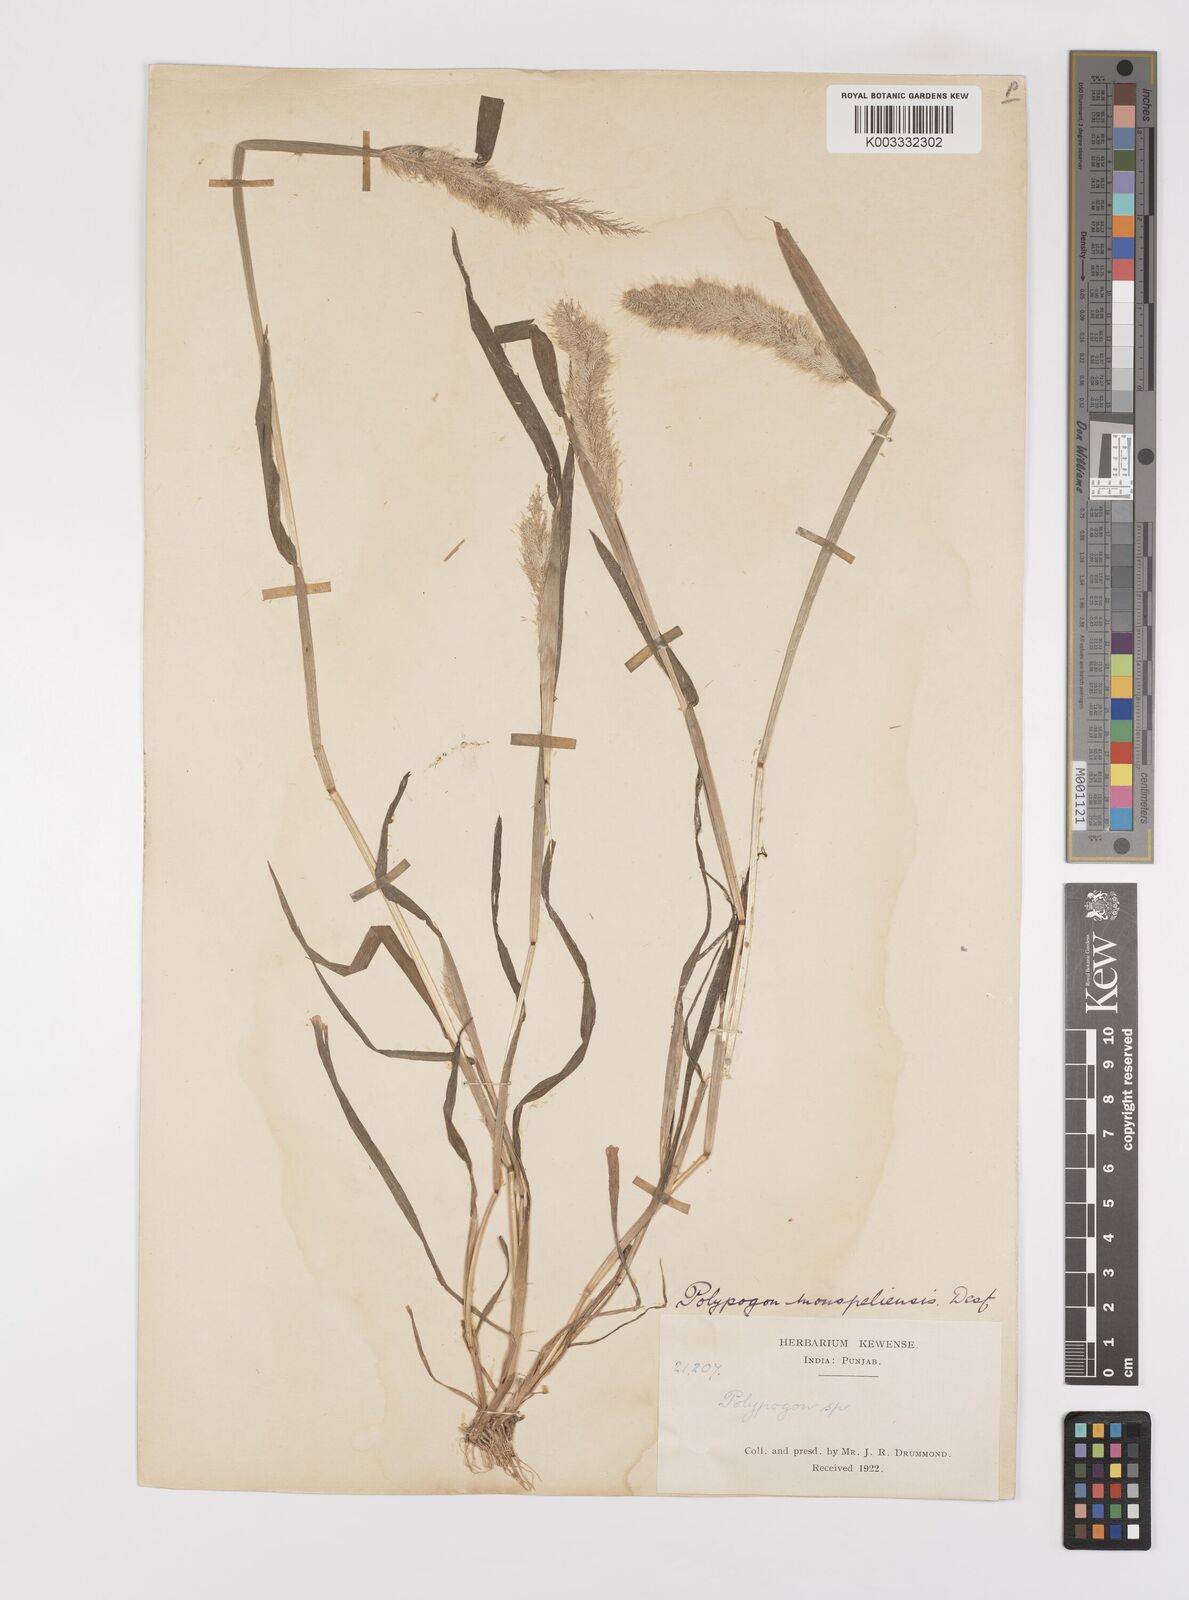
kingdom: Plantae
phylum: Tracheophyta
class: Liliopsida
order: Poales
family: Poaceae
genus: Polypogon
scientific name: Polypogon monspeliensis
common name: Annual rabbitsfoot grass
